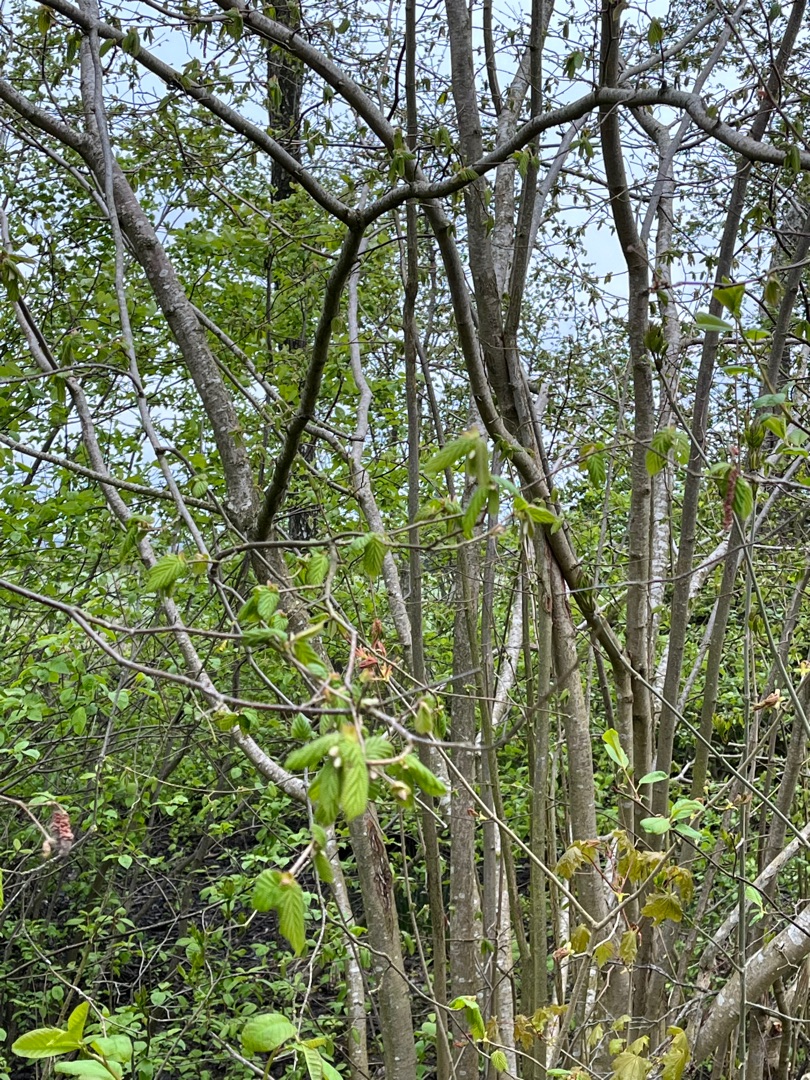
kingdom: Plantae
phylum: Tracheophyta
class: Magnoliopsida
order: Fagales
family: Betulaceae
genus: Corylus
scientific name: Corylus avellana
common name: Hassel
